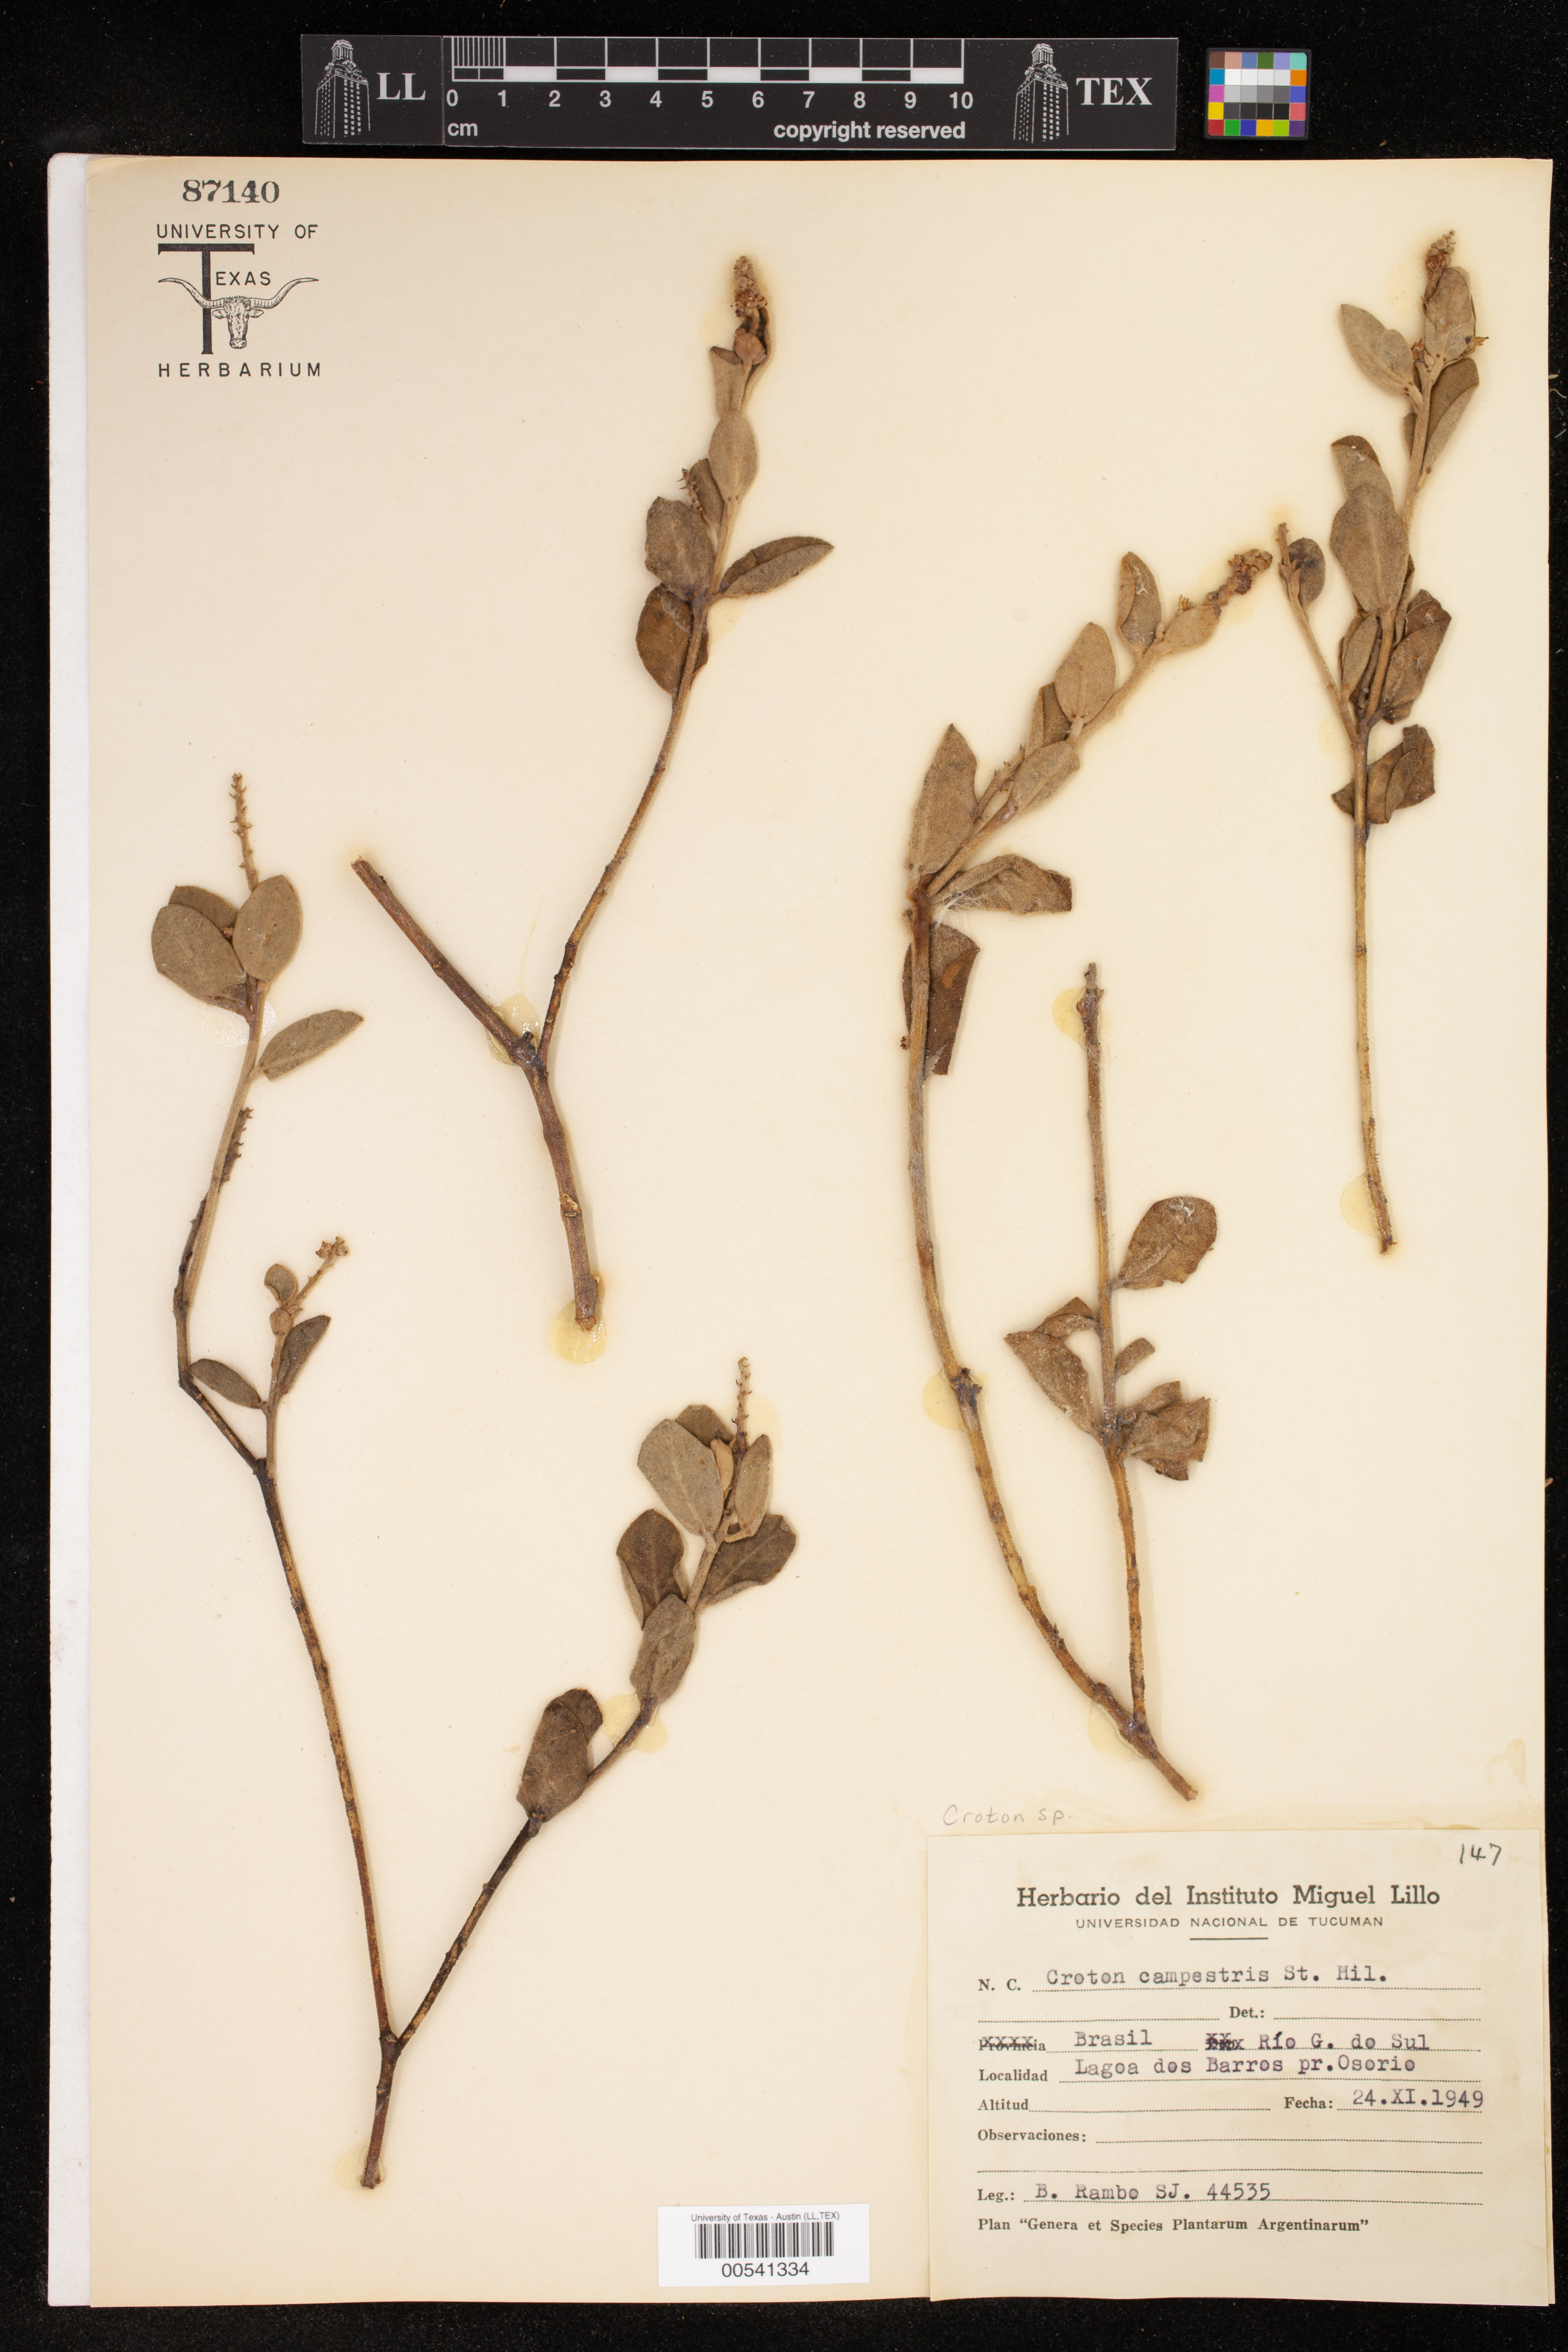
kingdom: Plantae
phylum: Tracheophyta
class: Magnoliopsida
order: Malpighiales
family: Euphorbiaceae
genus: Croton
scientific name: Croton
